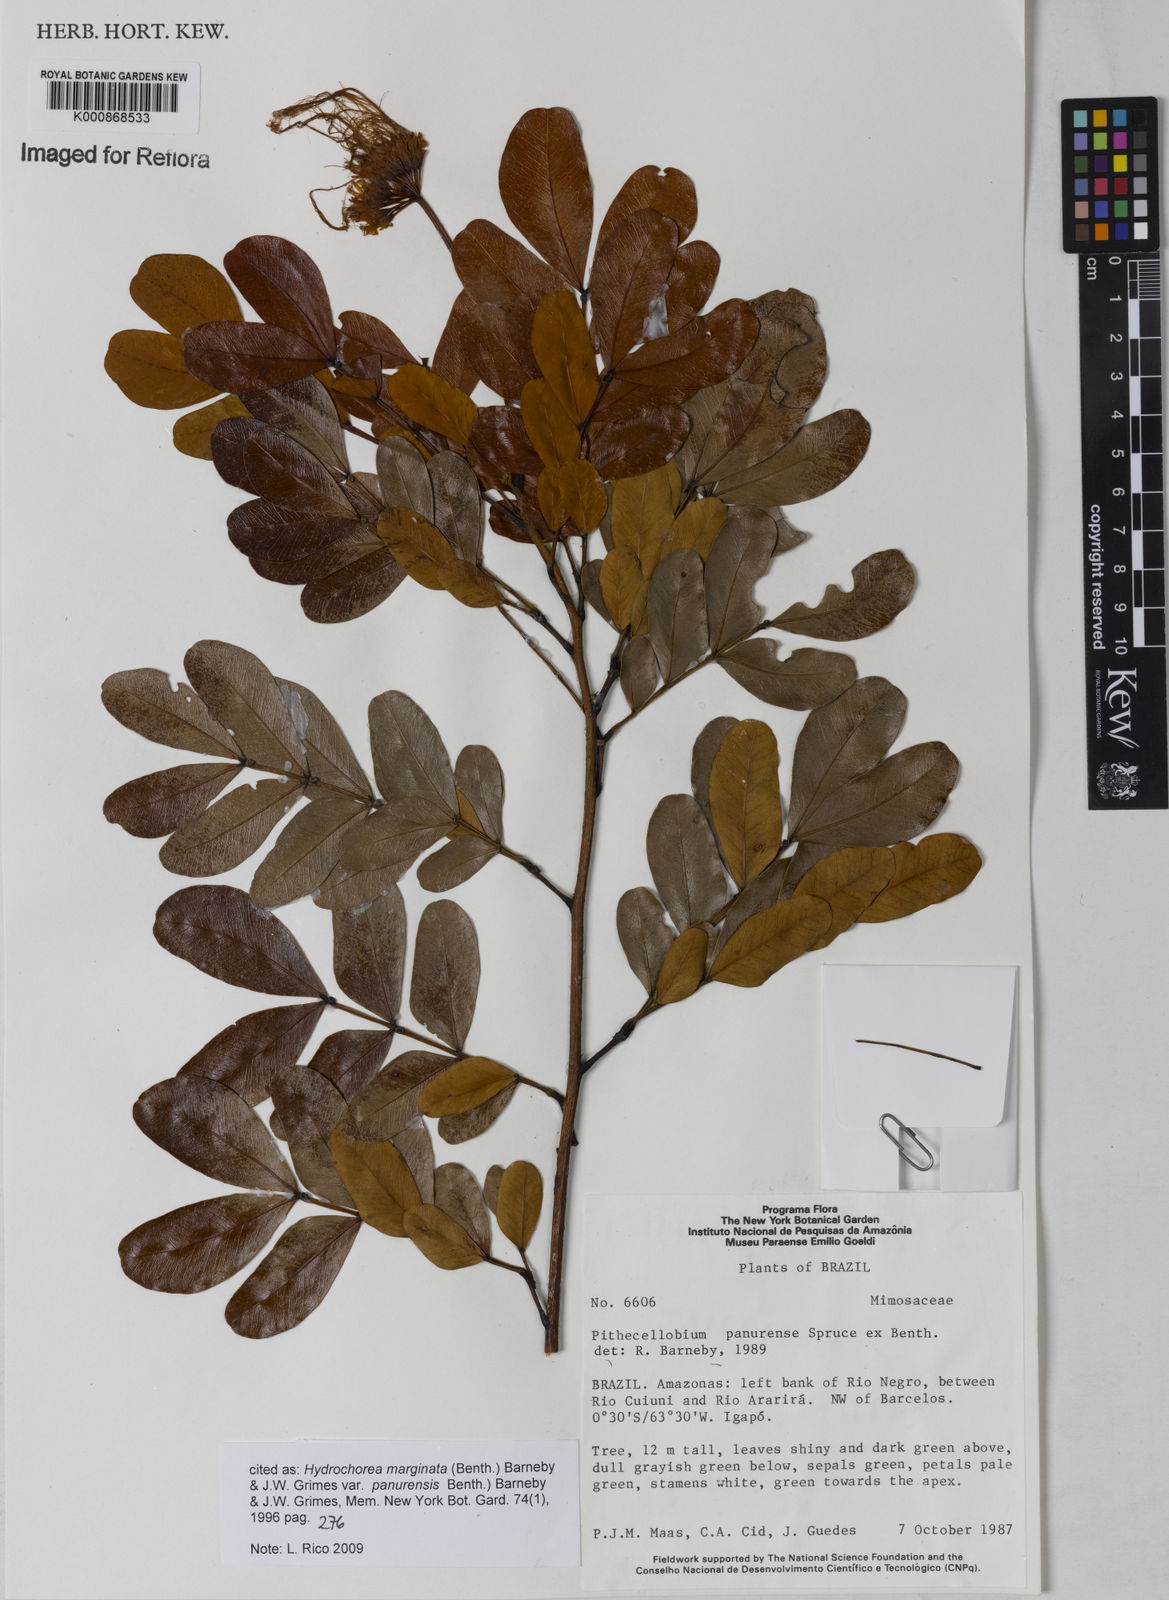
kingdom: Plantae
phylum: Tracheophyta
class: Magnoliopsida
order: Fabales
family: Fabaceae
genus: Hydrochorea
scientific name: Hydrochorea marginata
